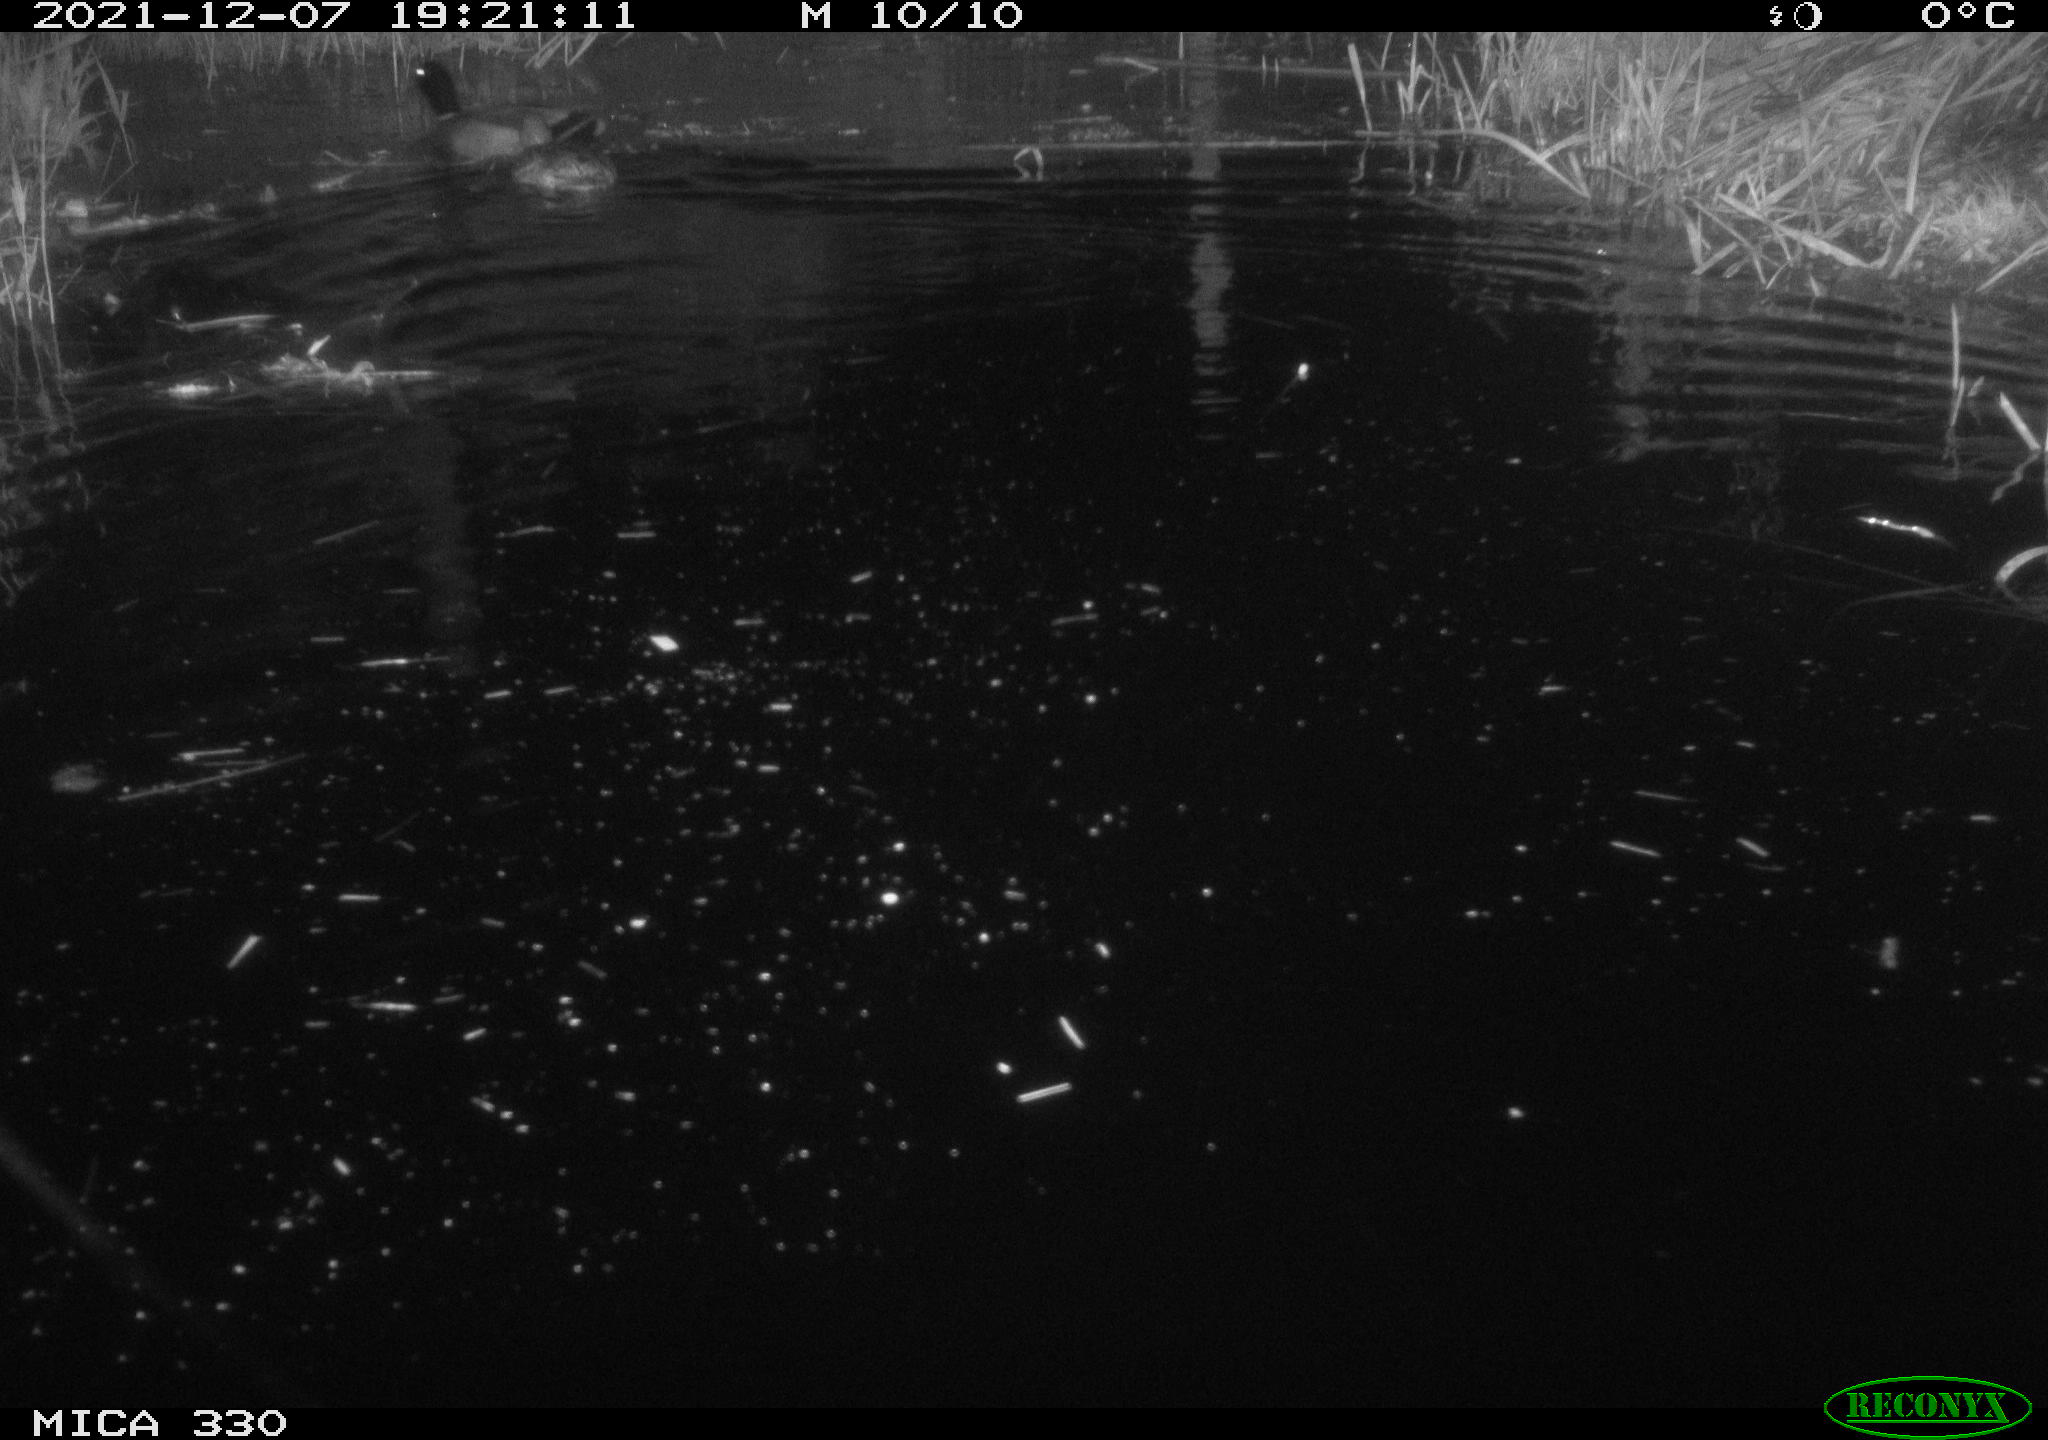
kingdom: Animalia
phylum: Chordata
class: Aves
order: Anseriformes
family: Anatidae
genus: Anas
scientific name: Anas platyrhynchos
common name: Mallard
